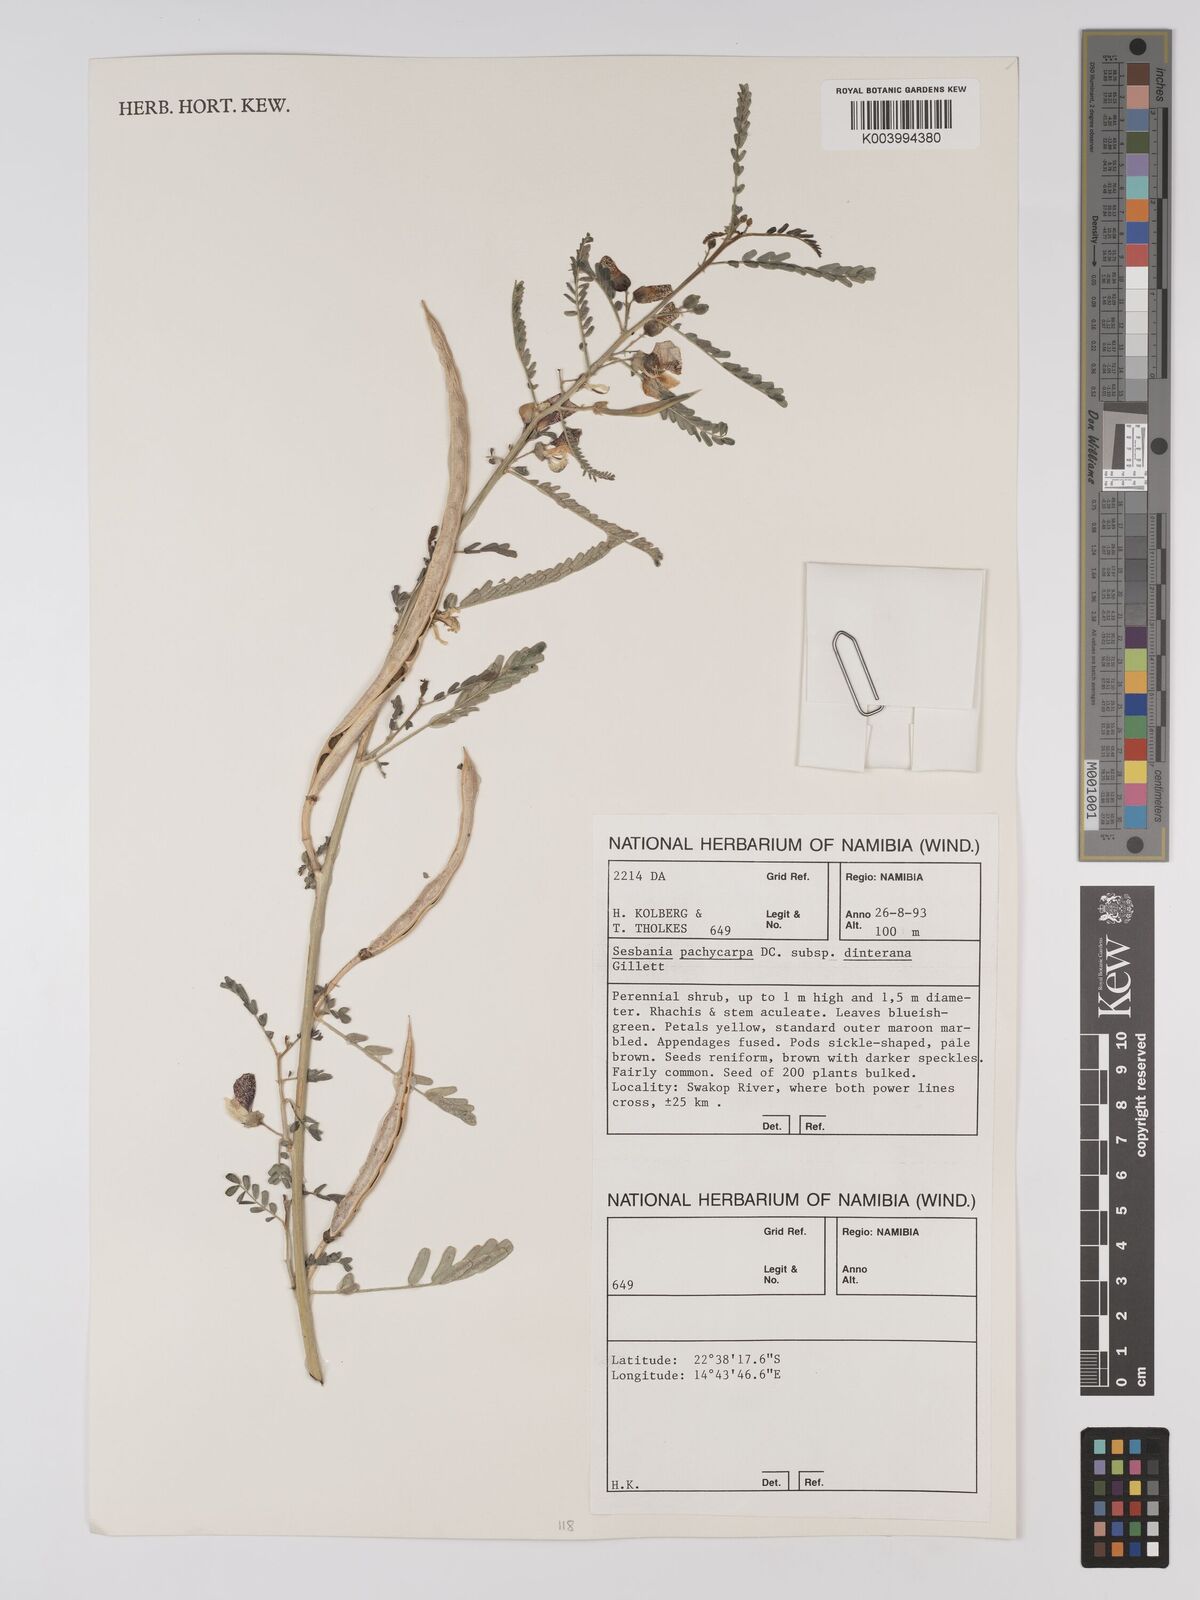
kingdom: Plantae
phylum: Tracheophyta
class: Magnoliopsida
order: Fabales
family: Fabaceae
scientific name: Fabaceae
